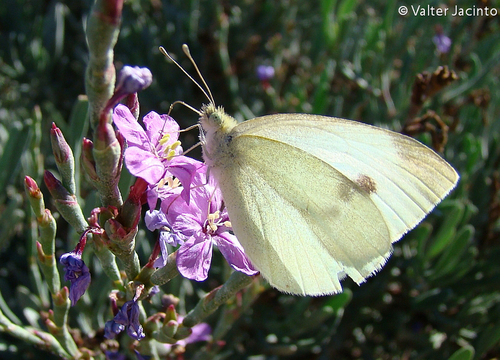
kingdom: Animalia
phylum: Arthropoda
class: Insecta
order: Lepidoptera
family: Pieridae
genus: Pieris
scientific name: Pieris rapae
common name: Small white
